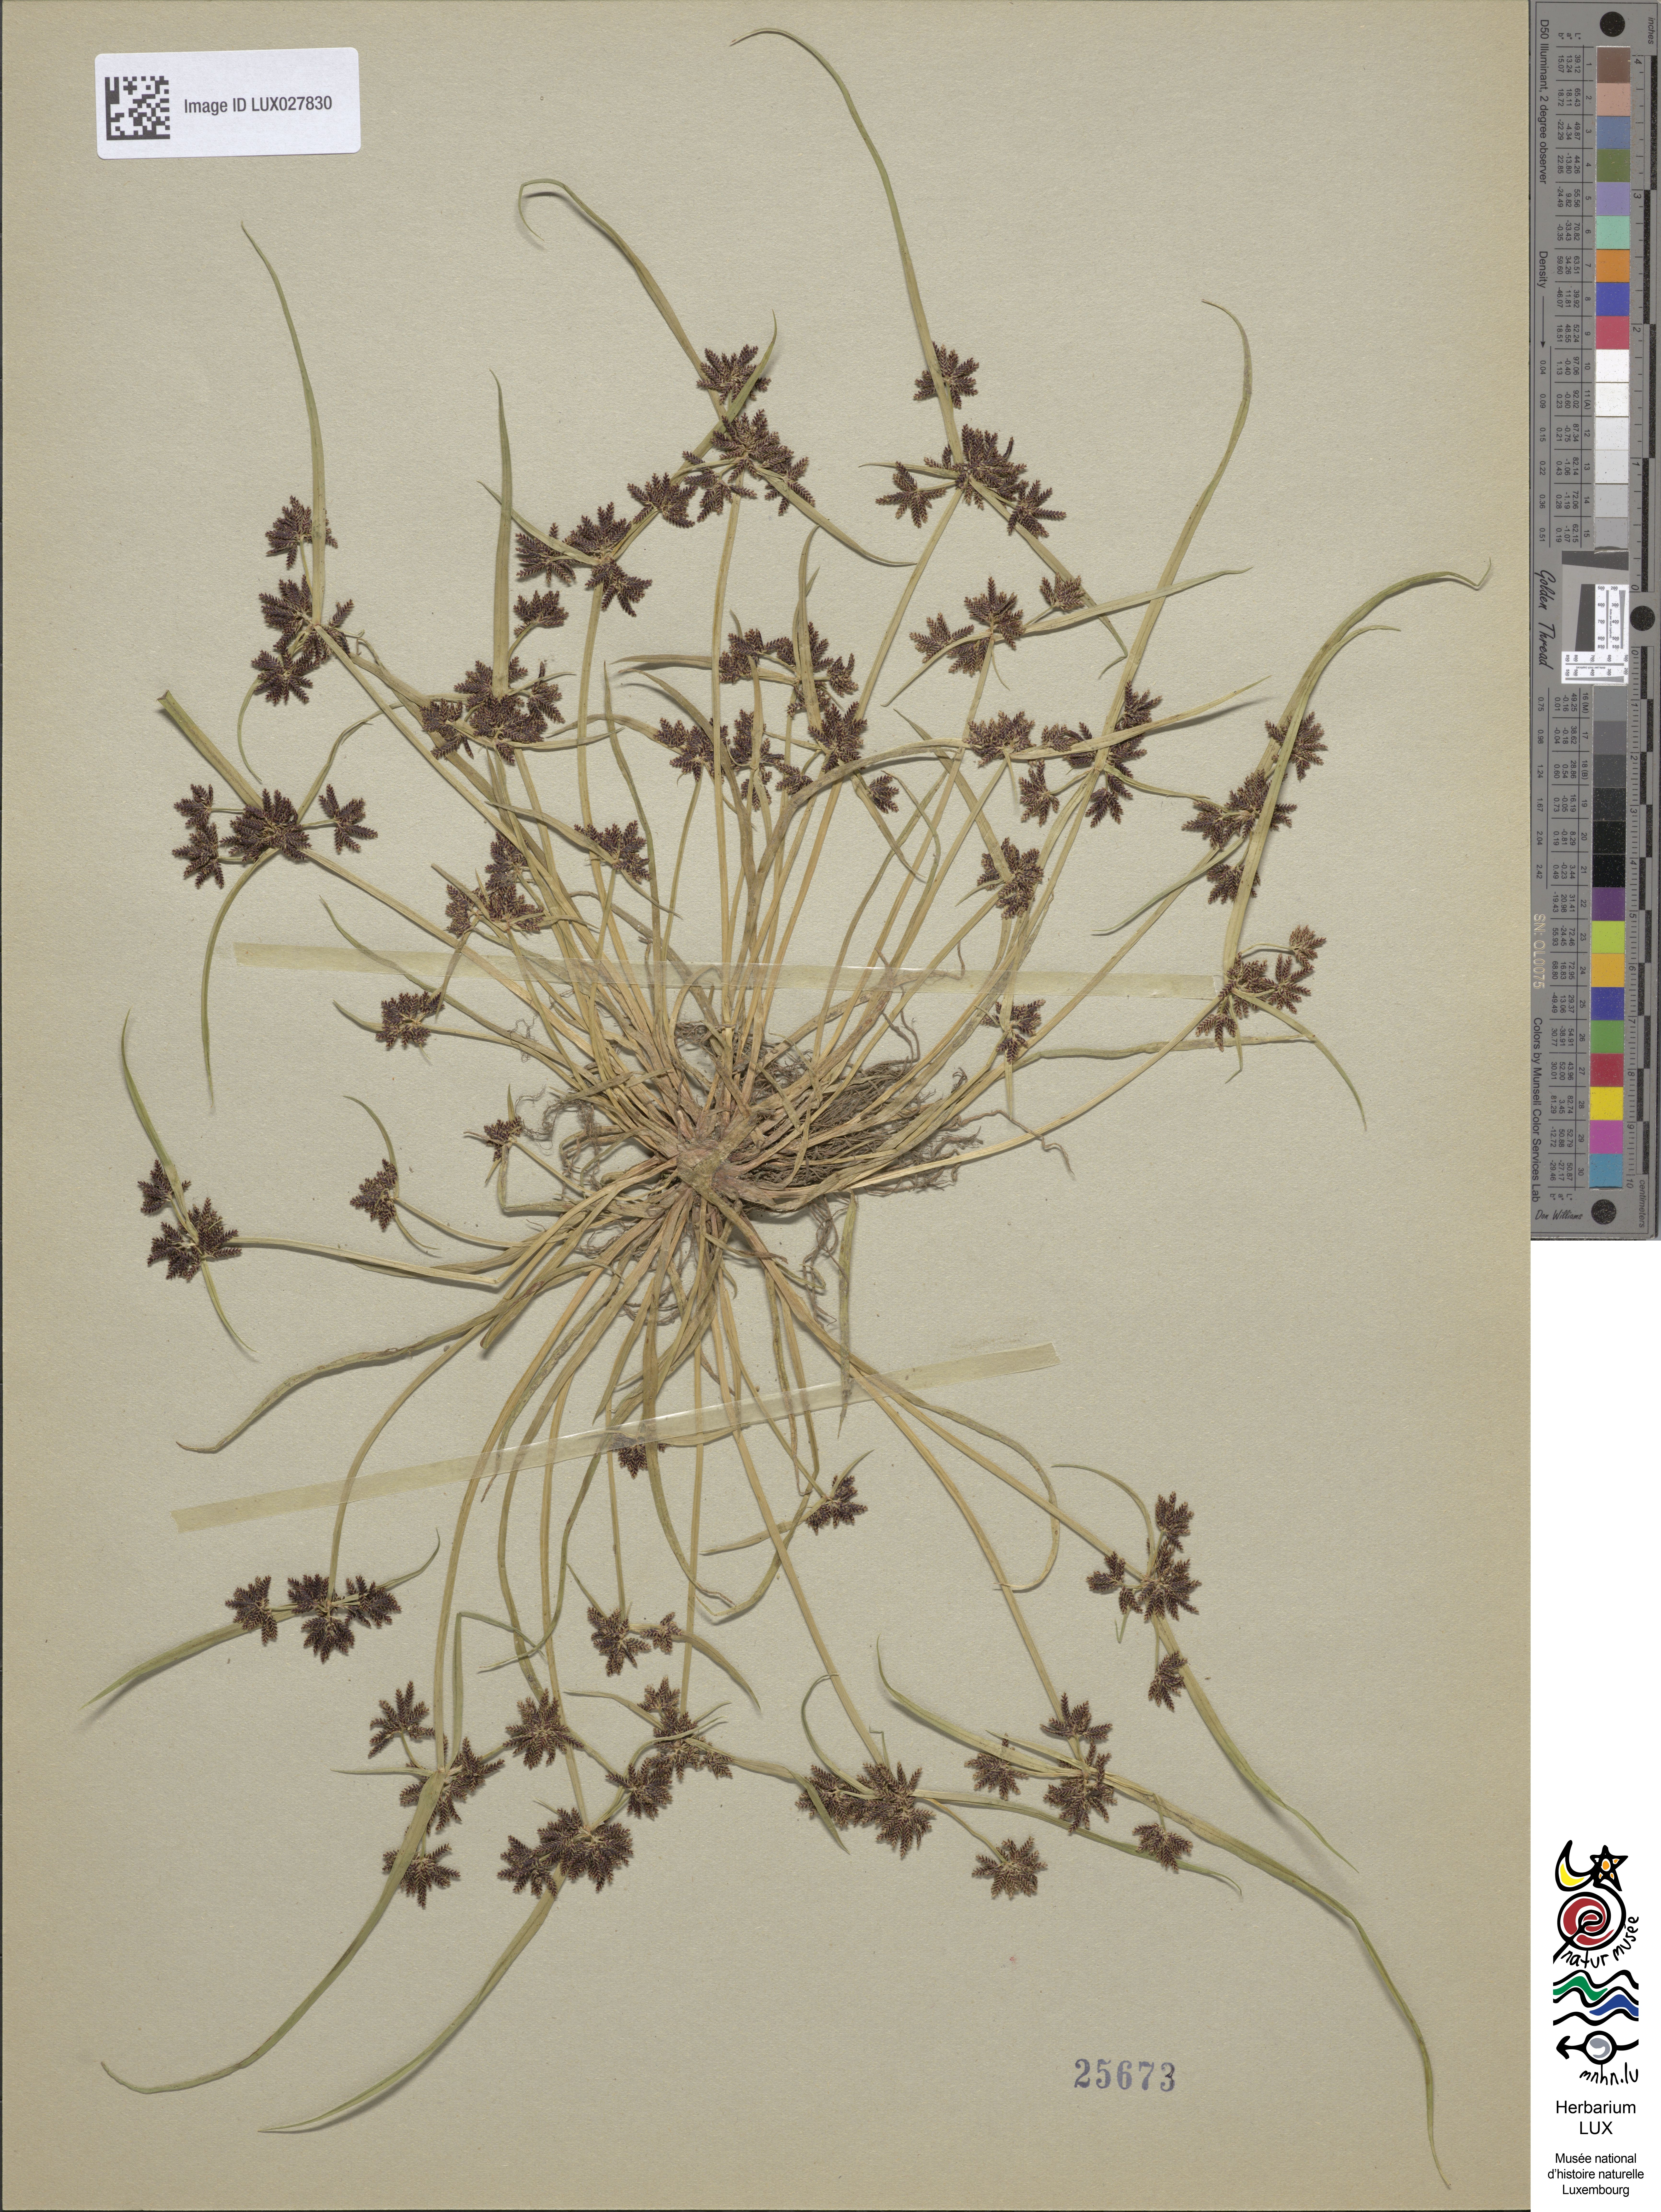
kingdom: Plantae
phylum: Tracheophyta
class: Liliopsida
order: Poales
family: Cyperaceae
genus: Cyperus
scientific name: Cyperus fuscus
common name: Brown galingale
